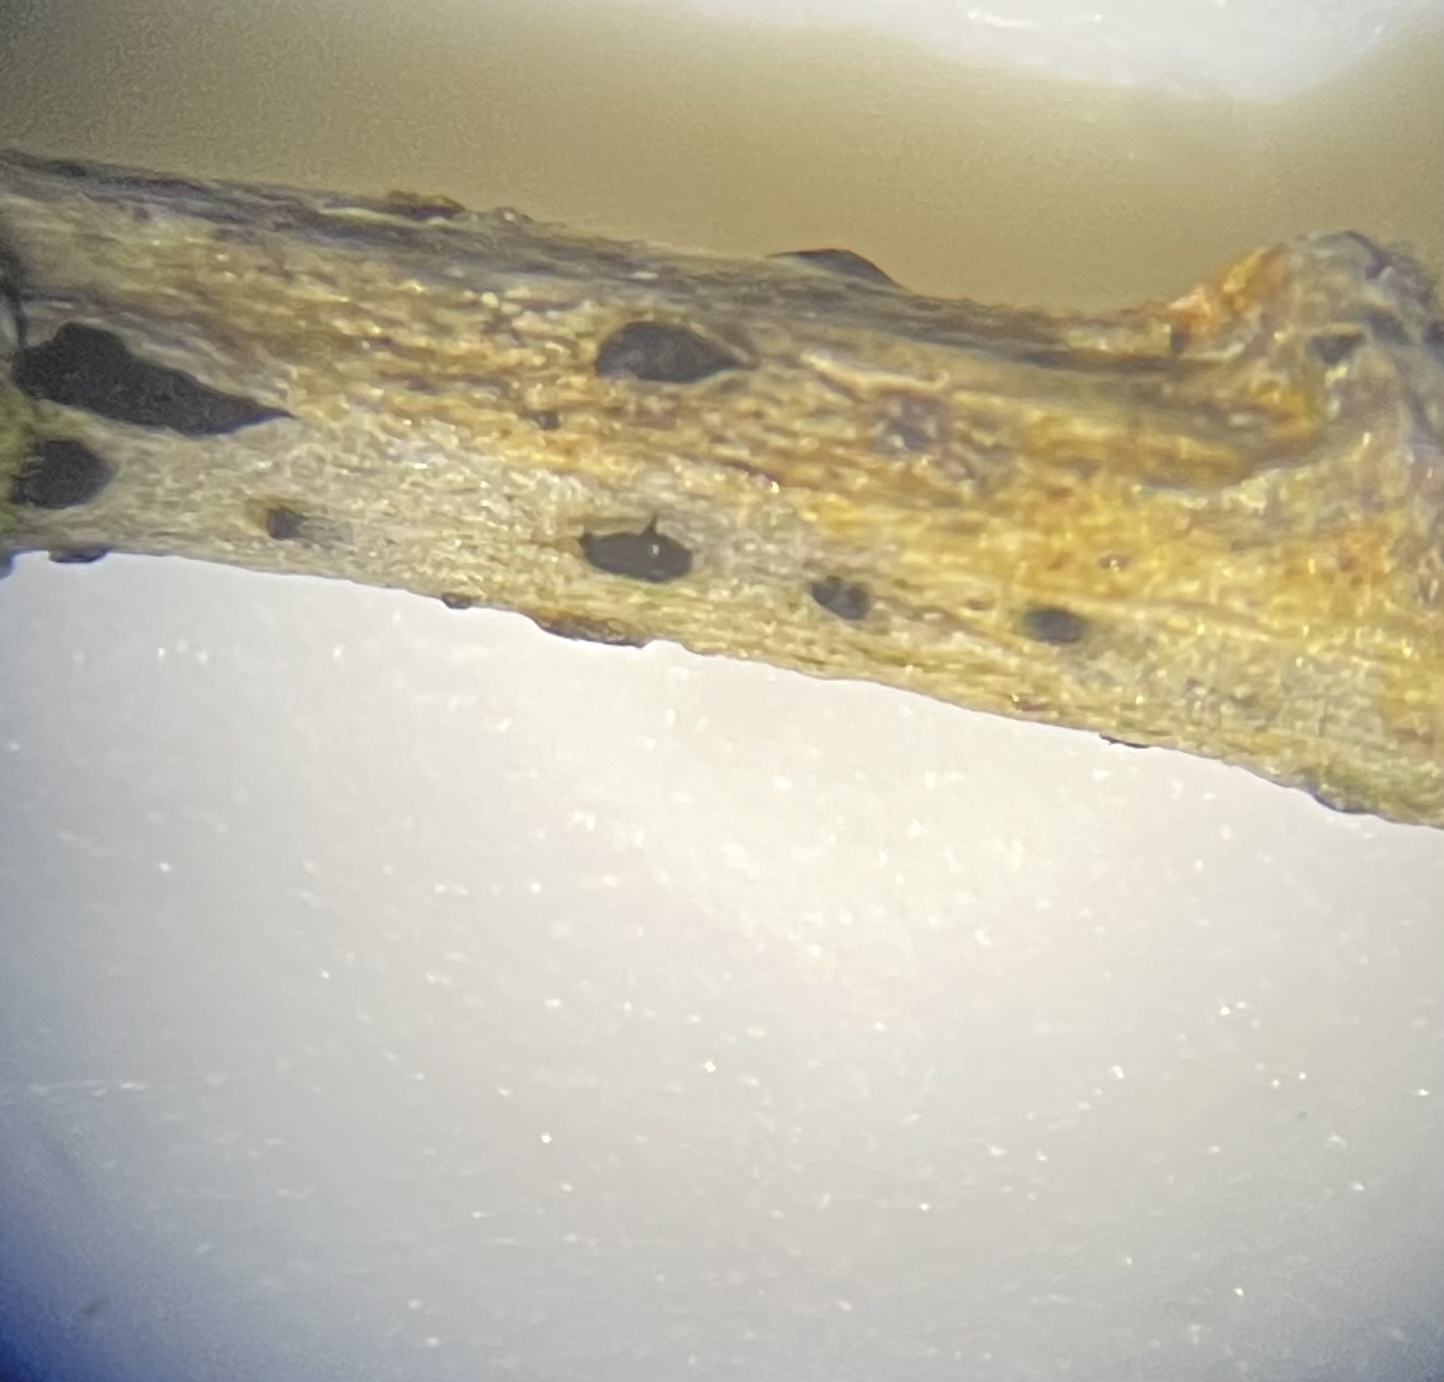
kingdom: Fungi
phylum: Ascomycota
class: Leotiomycetes
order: Helotiales
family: Mollisiaceae
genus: Trimmatostroma
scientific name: Trimmatostroma betulinum
